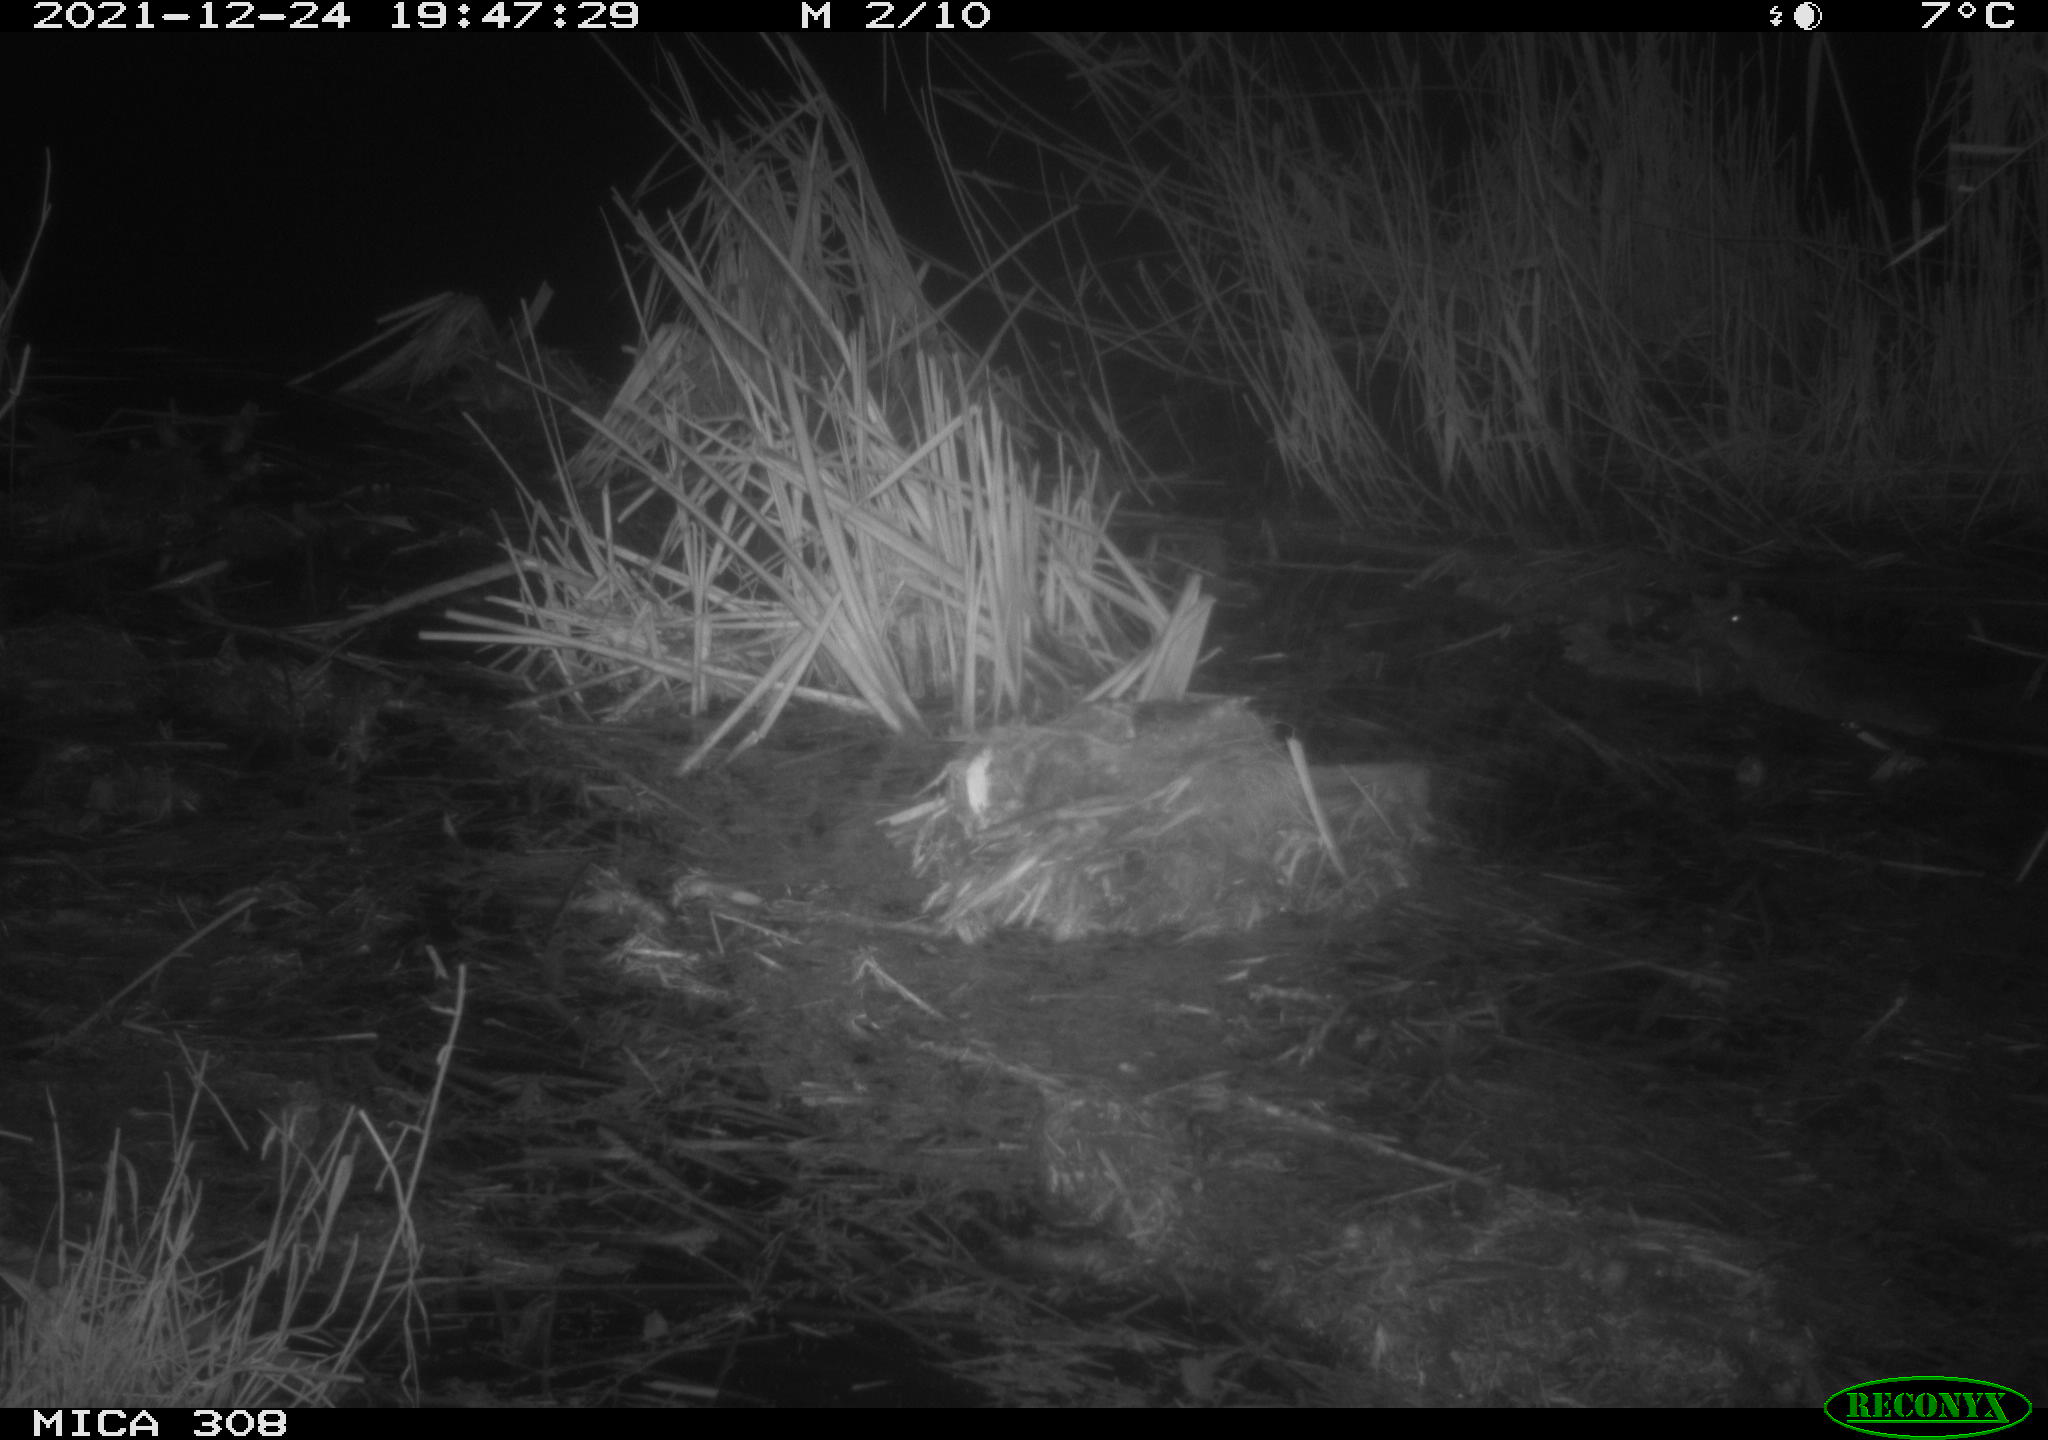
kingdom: Animalia
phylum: Chordata
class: Mammalia
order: Rodentia
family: Cricetidae
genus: Ondatra
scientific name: Ondatra zibethicus
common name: Muskrat
